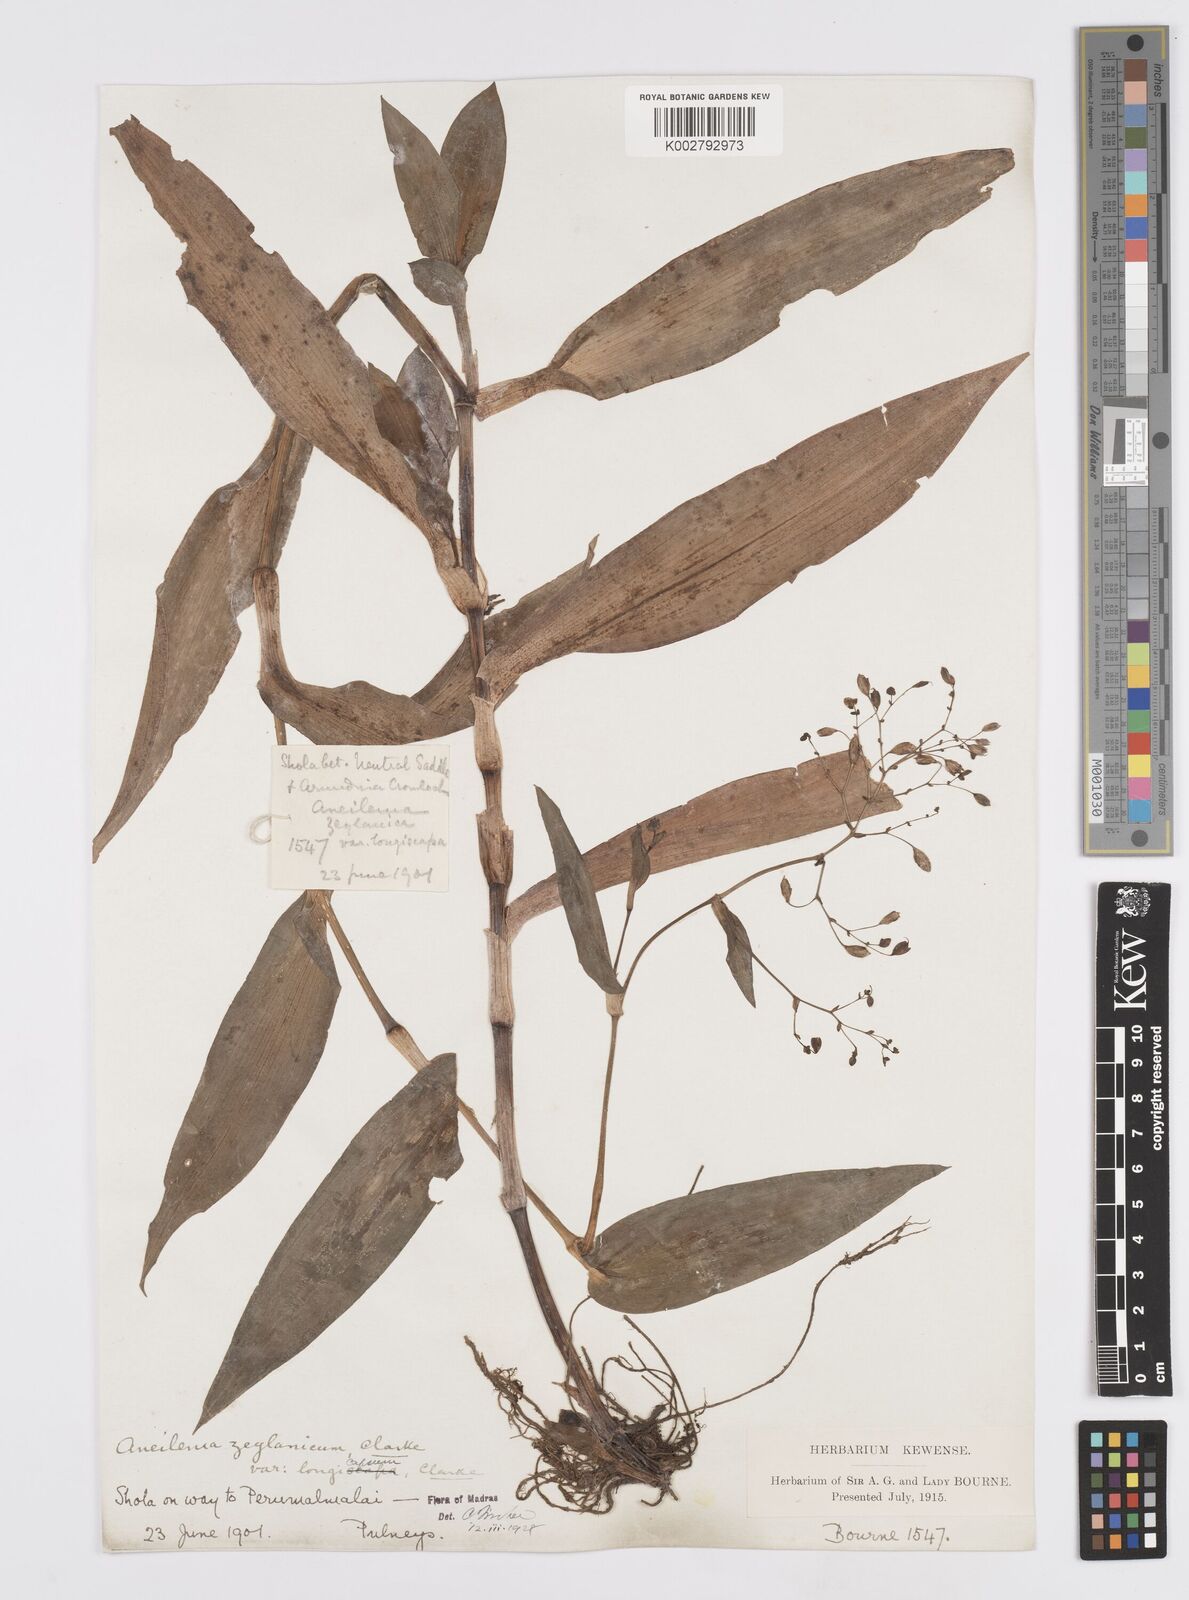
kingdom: Plantae
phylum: Tracheophyta
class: Liliopsida
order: Commelinales
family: Commelinaceae
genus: Murdannia
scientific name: Murdannia zeylanica
